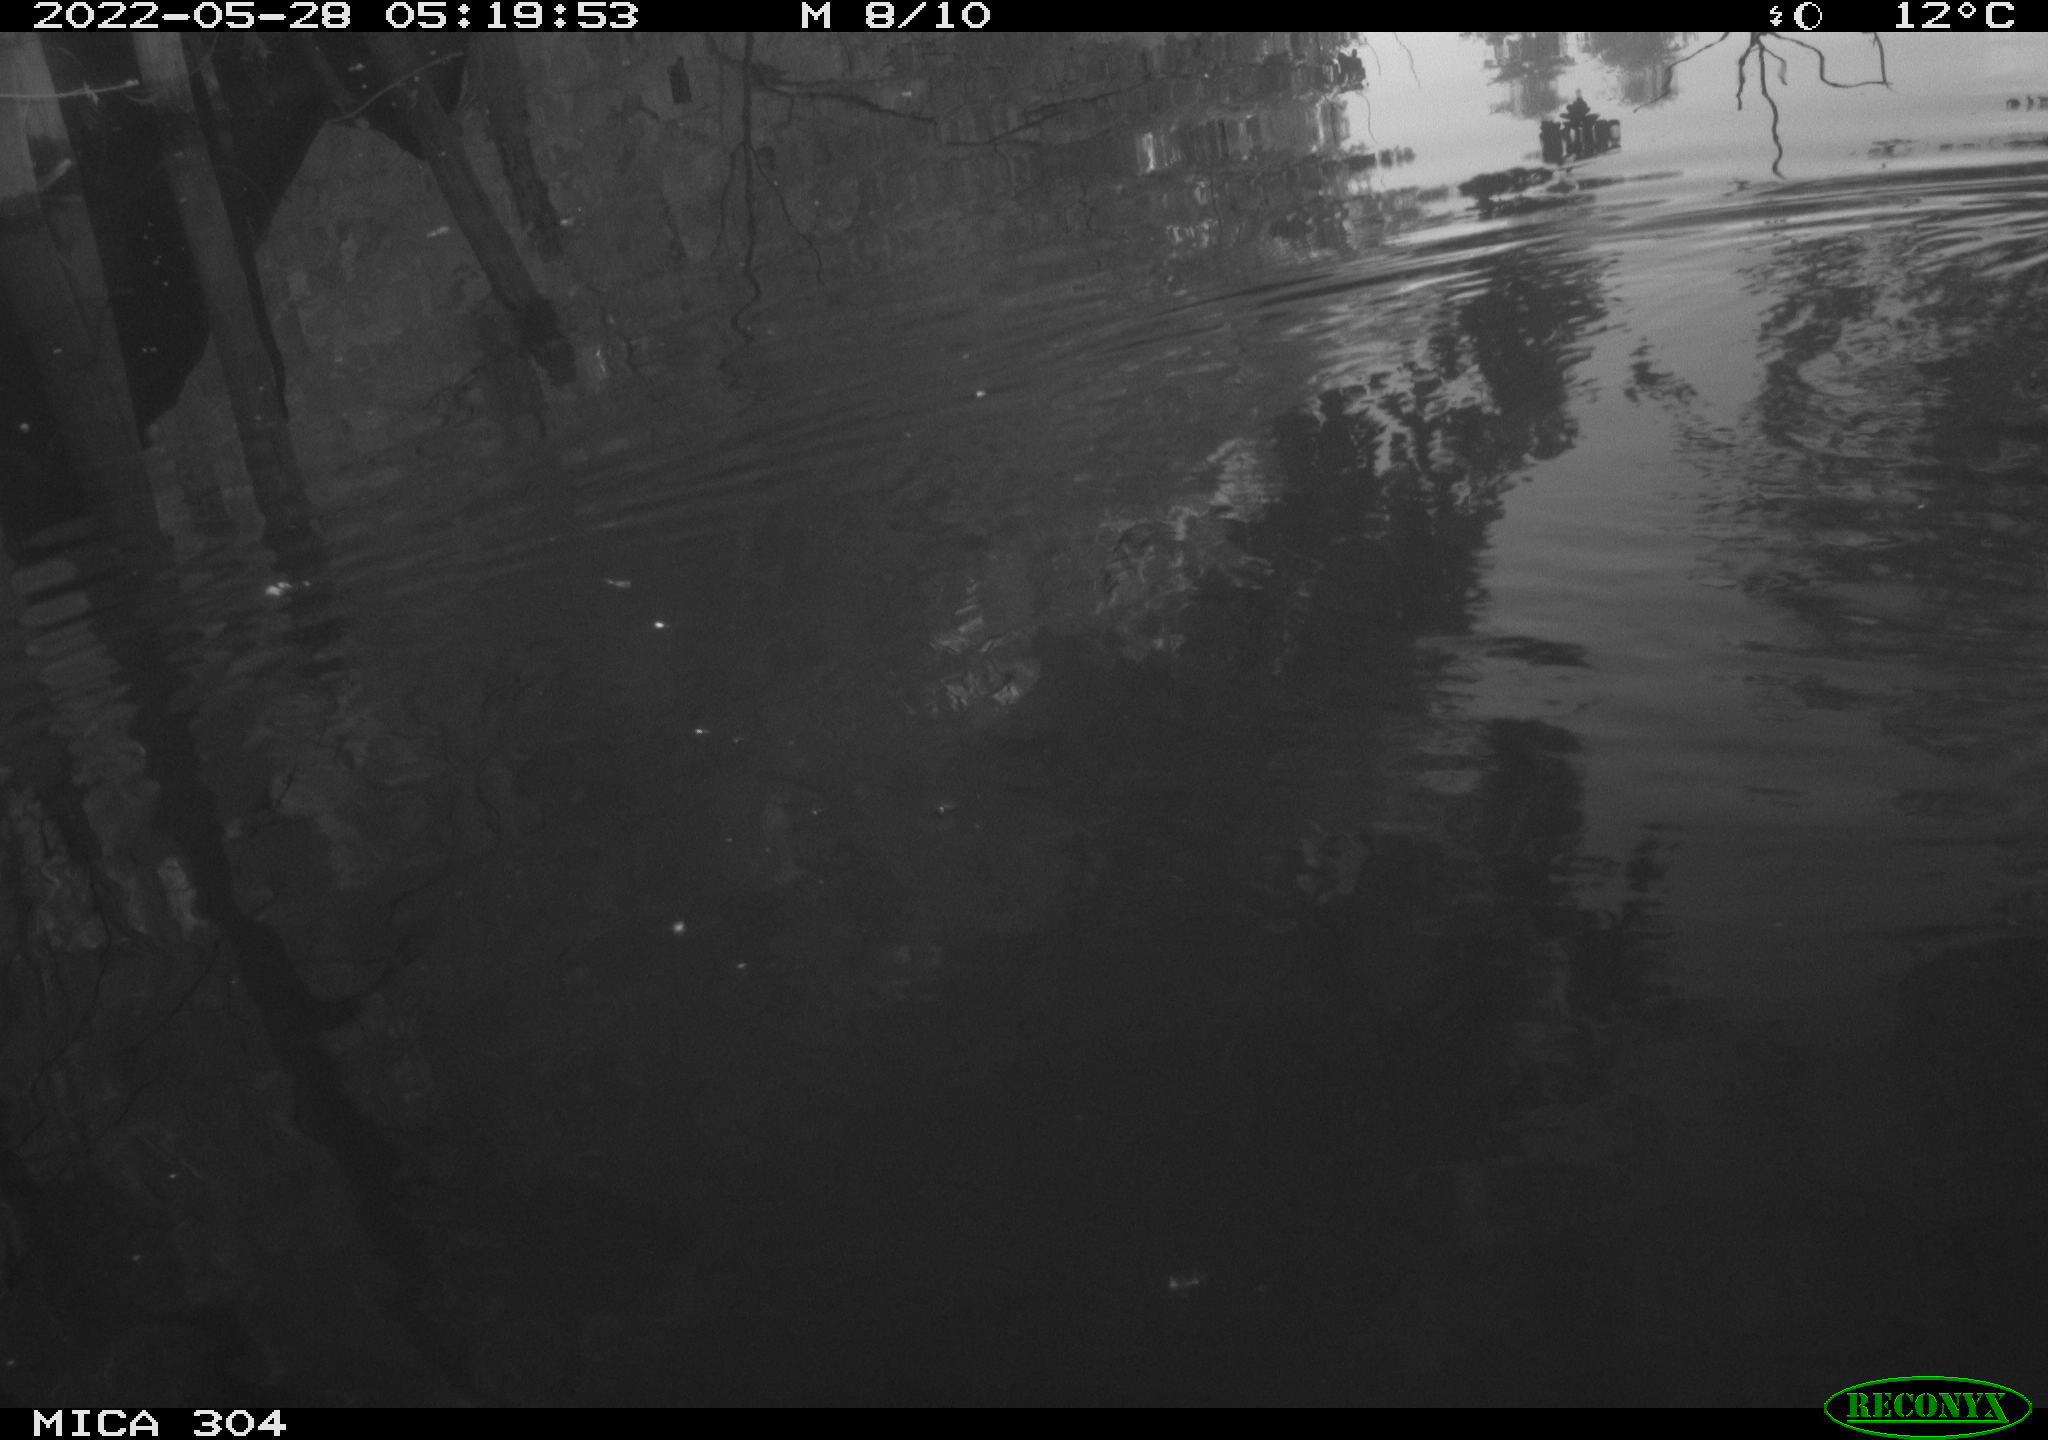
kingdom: Animalia
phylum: Chordata
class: Aves
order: Gruiformes
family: Rallidae
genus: Gallinula
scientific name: Gallinula chloropus
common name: Common moorhen
